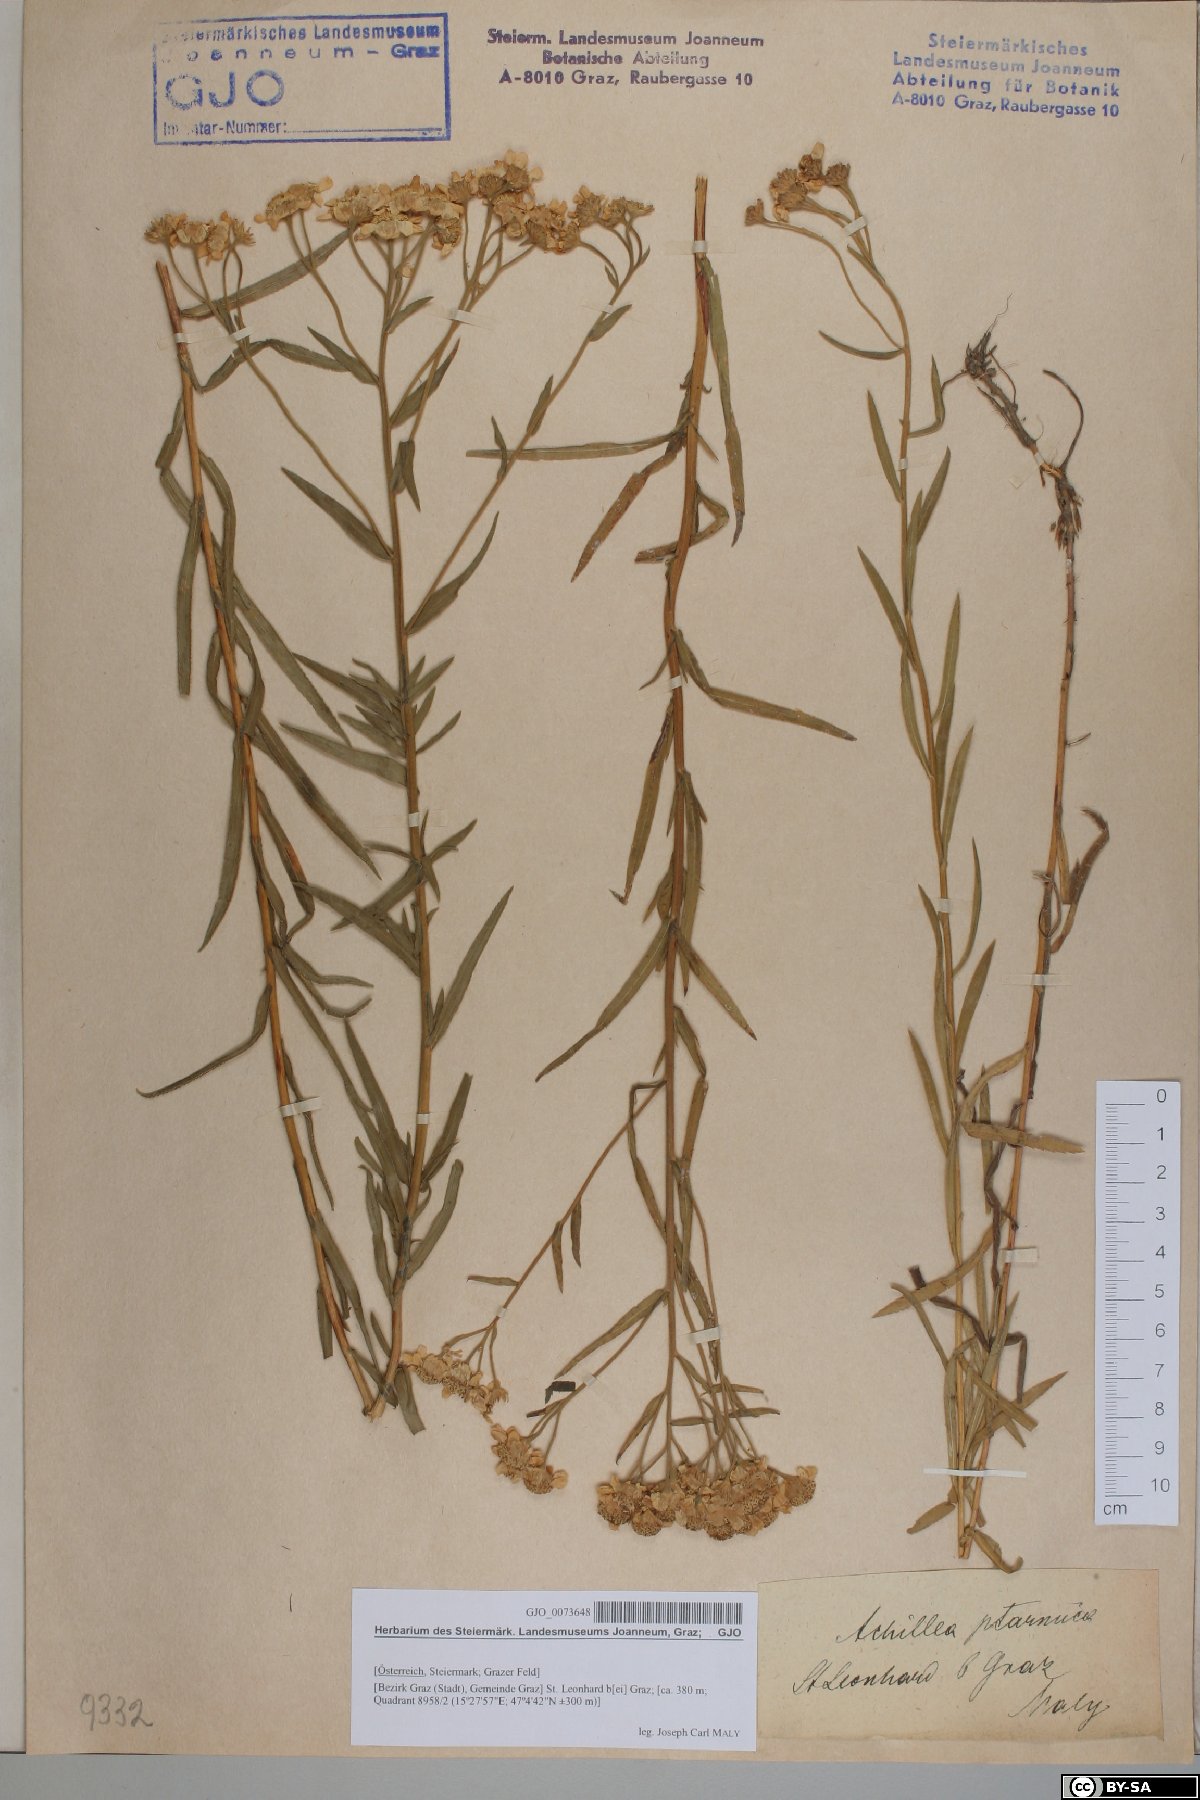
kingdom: Plantae
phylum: Tracheophyta
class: Magnoliopsida
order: Asterales
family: Asteraceae
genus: Achillea
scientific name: Achillea ptarmica
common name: Sneezeweed
